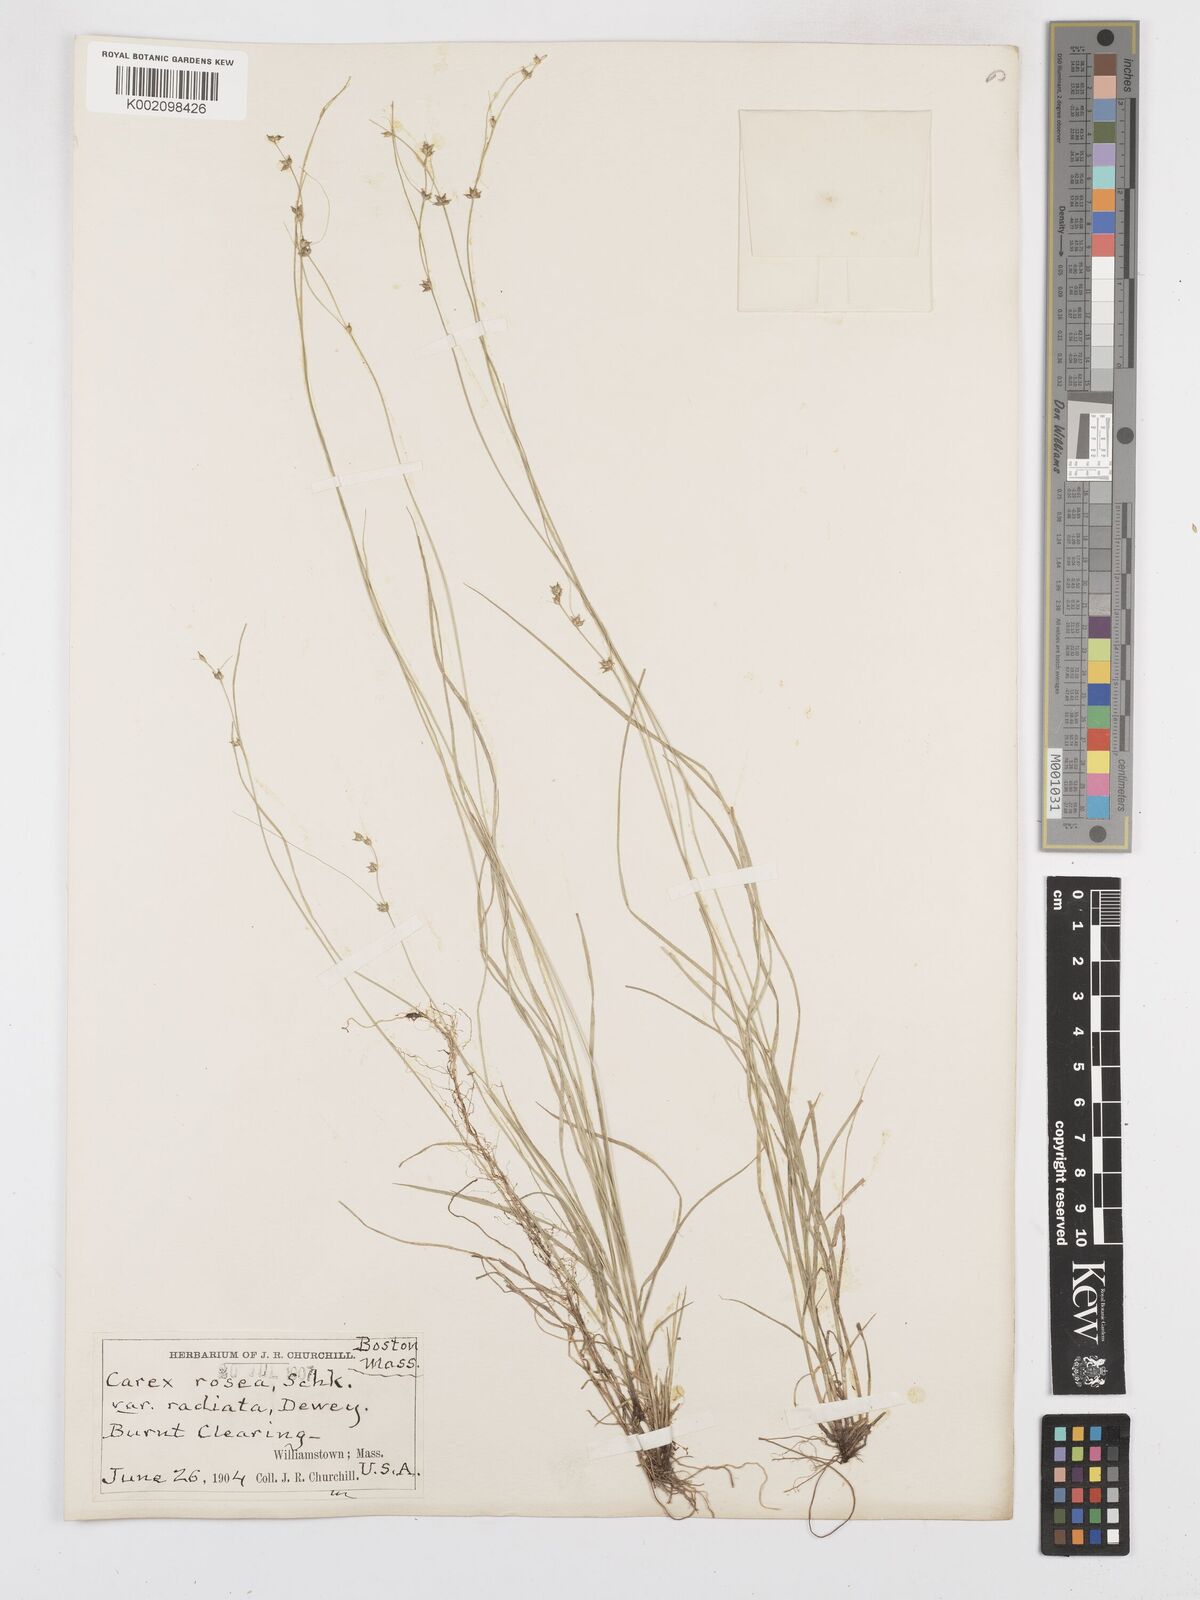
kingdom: Plantae
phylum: Tracheophyta
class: Liliopsida
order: Poales
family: Cyperaceae
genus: Carex
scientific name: Carex
